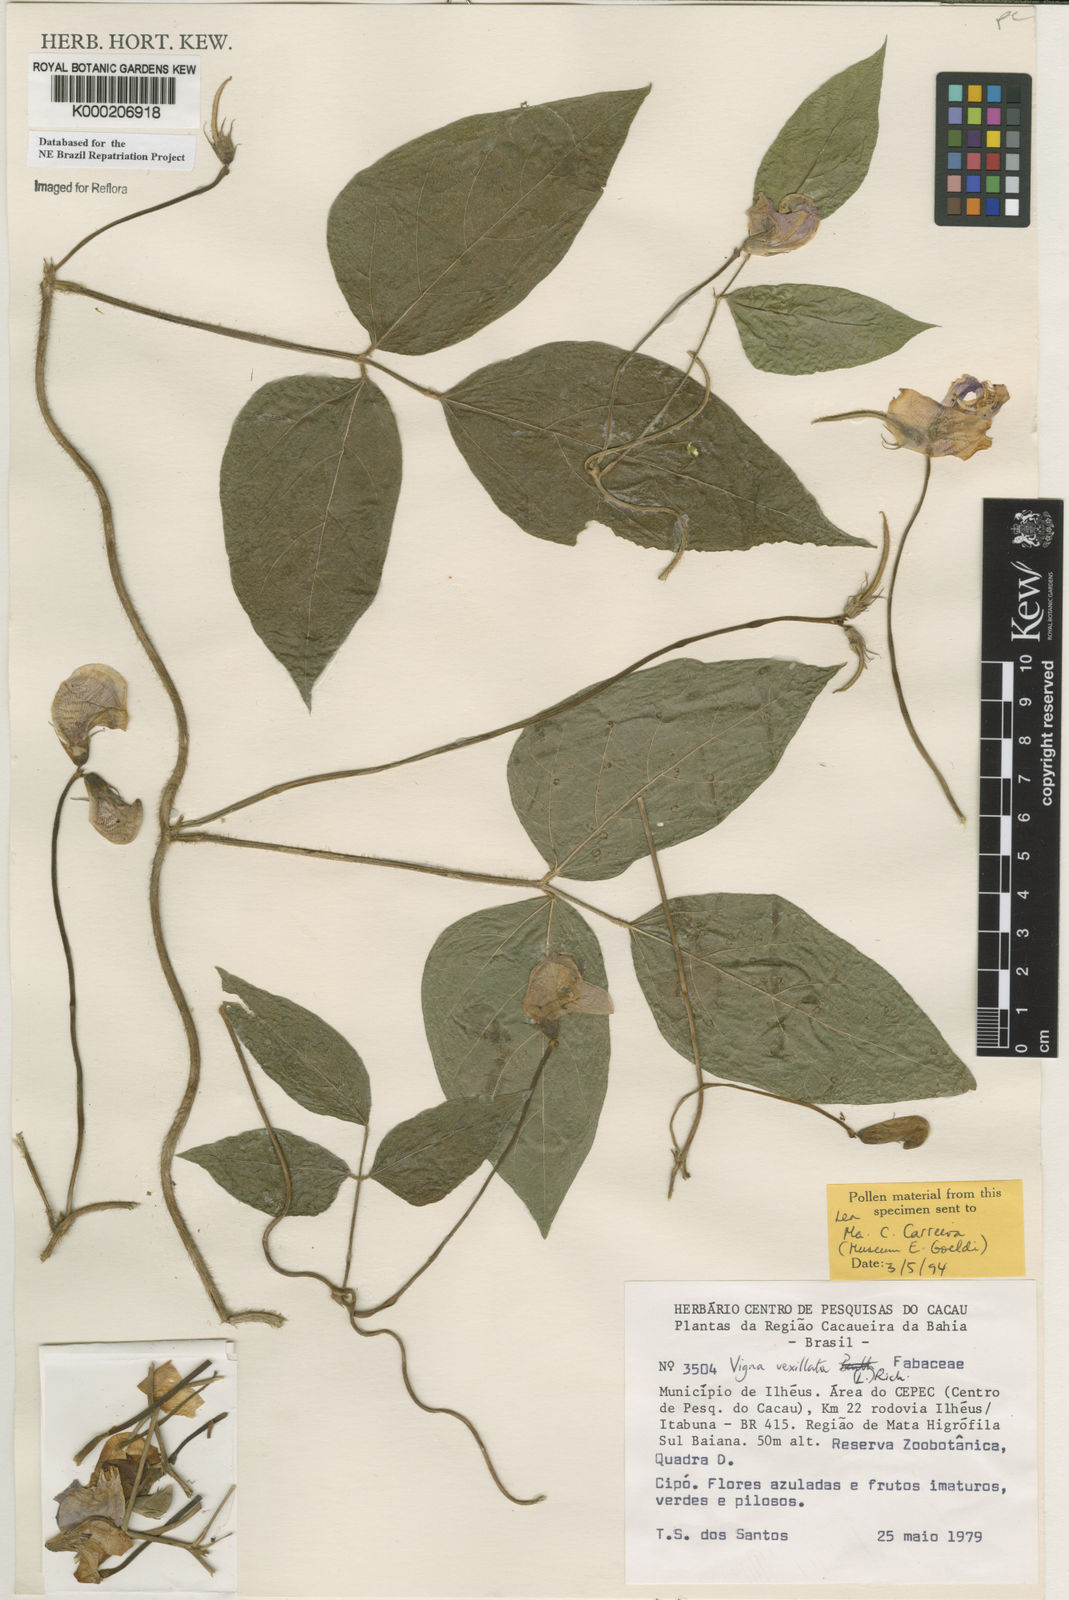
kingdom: Plantae
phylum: Tracheophyta
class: Magnoliopsida
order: Fabales
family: Fabaceae
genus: Vigna
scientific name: Vigna vexillata
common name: Zombi pea
